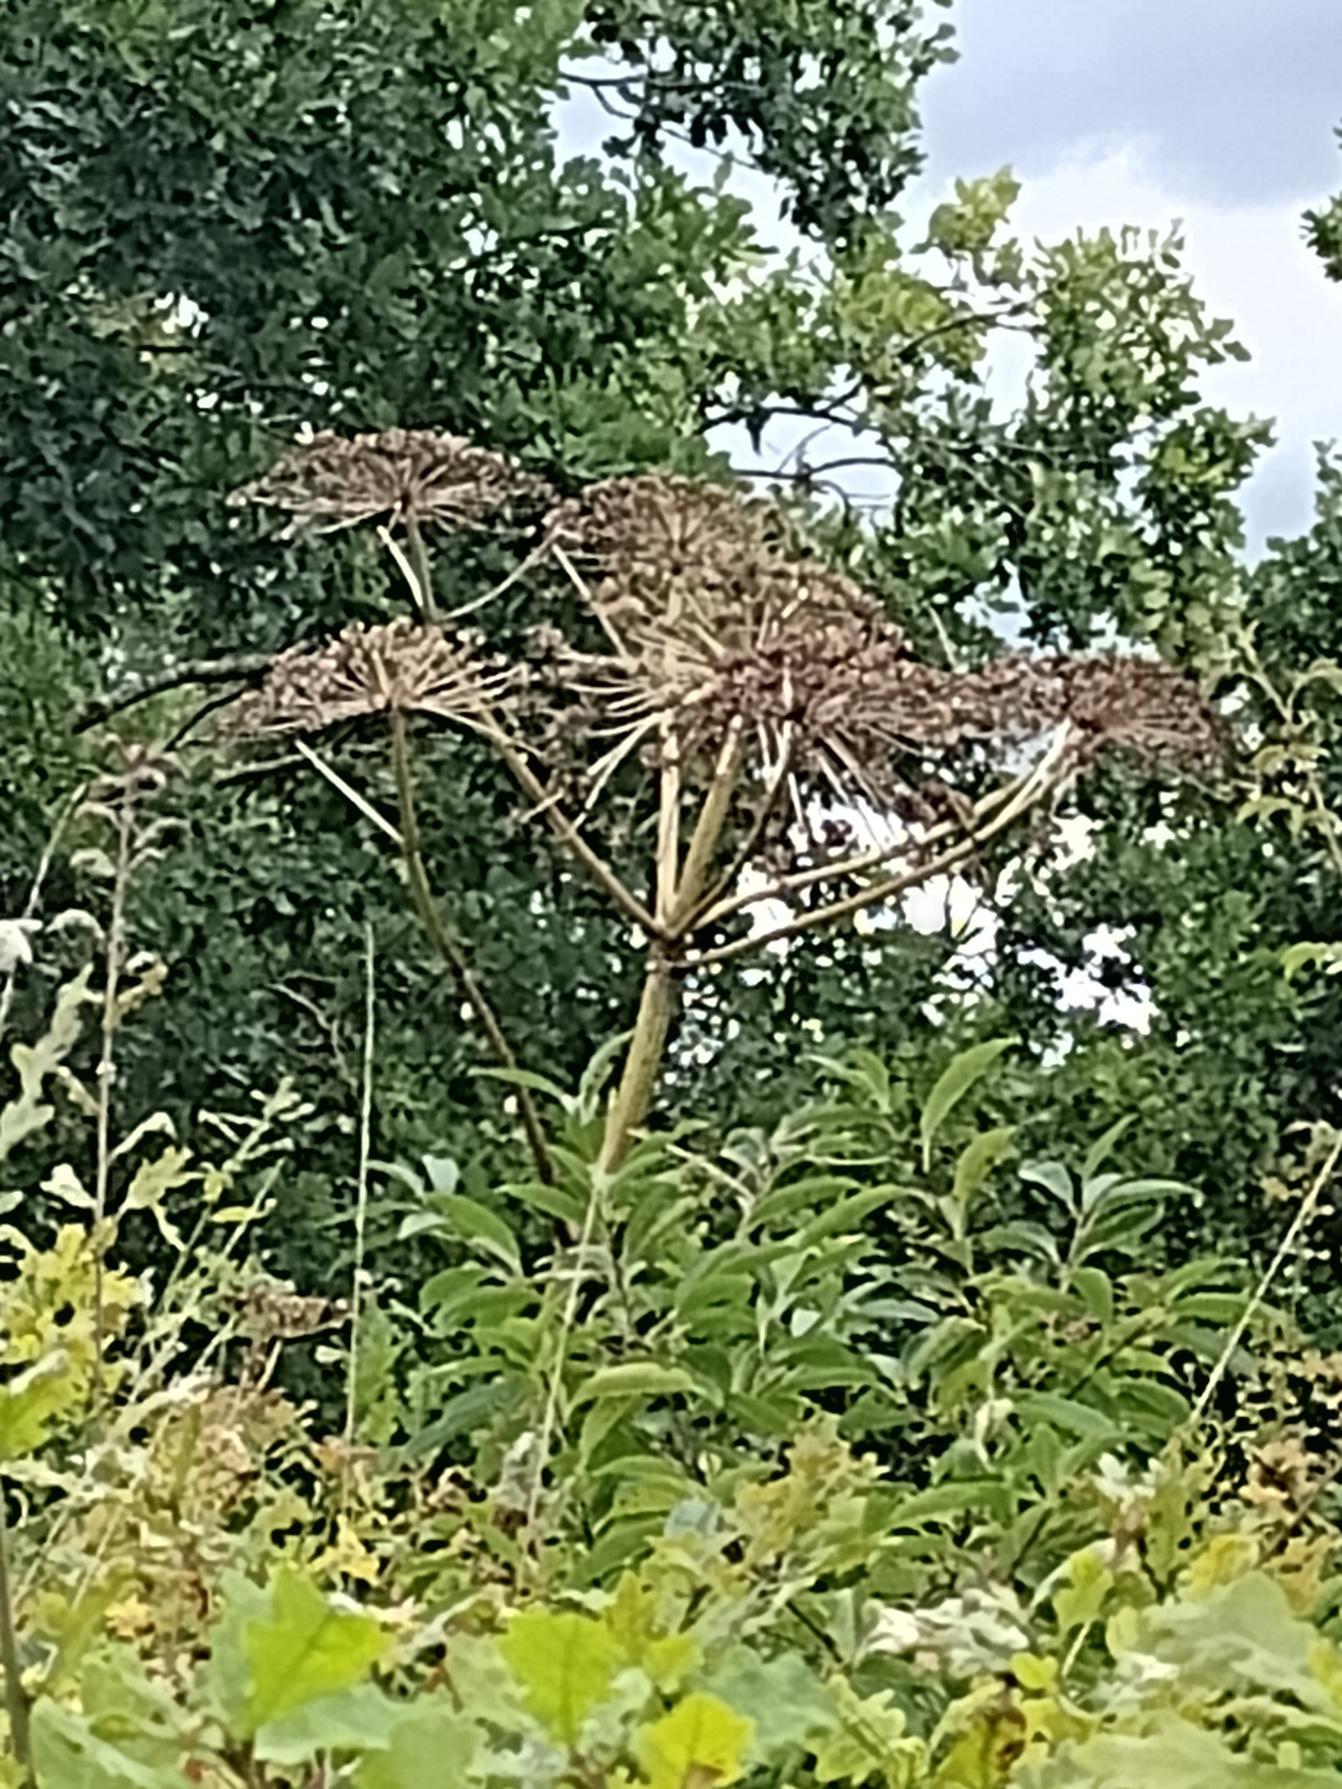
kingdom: Plantae
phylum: Tracheophyta
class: Magnoliopsida
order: Apiales
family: Apiaceae
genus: Heracleum
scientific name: Heracleum mantegazzianum
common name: Kæmpe-bjørneklo
